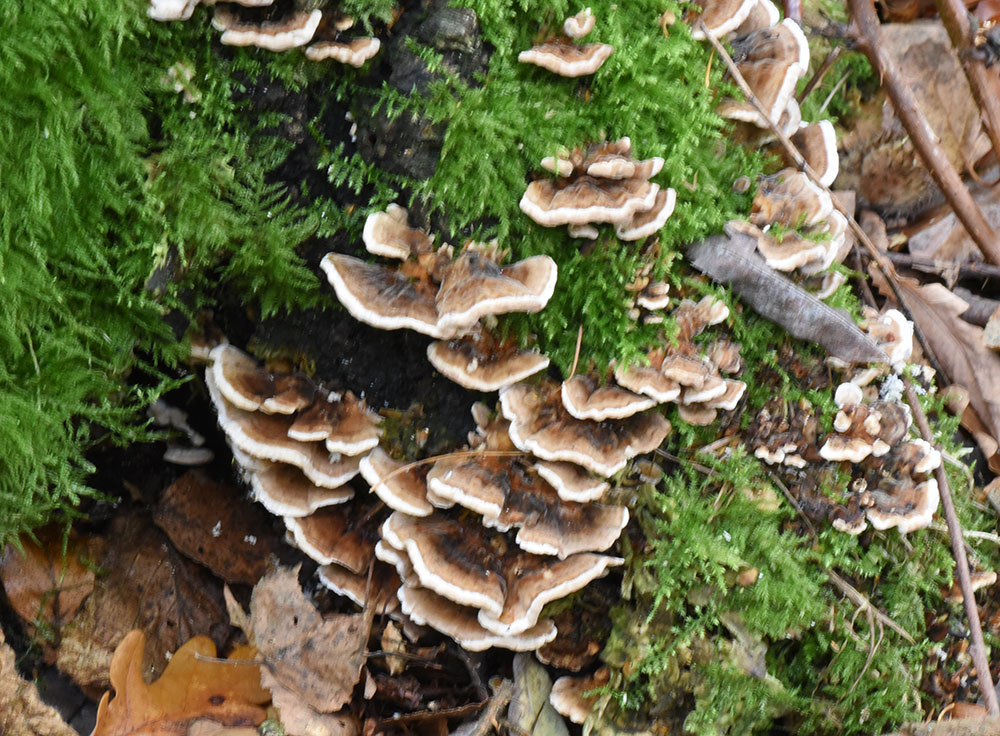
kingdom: Fungi
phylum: Basidiomycota
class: Agaricomycetes
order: Polyporales
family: Polyporaceae
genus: Trametes
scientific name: Trametes versicolor
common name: Turkeytail
